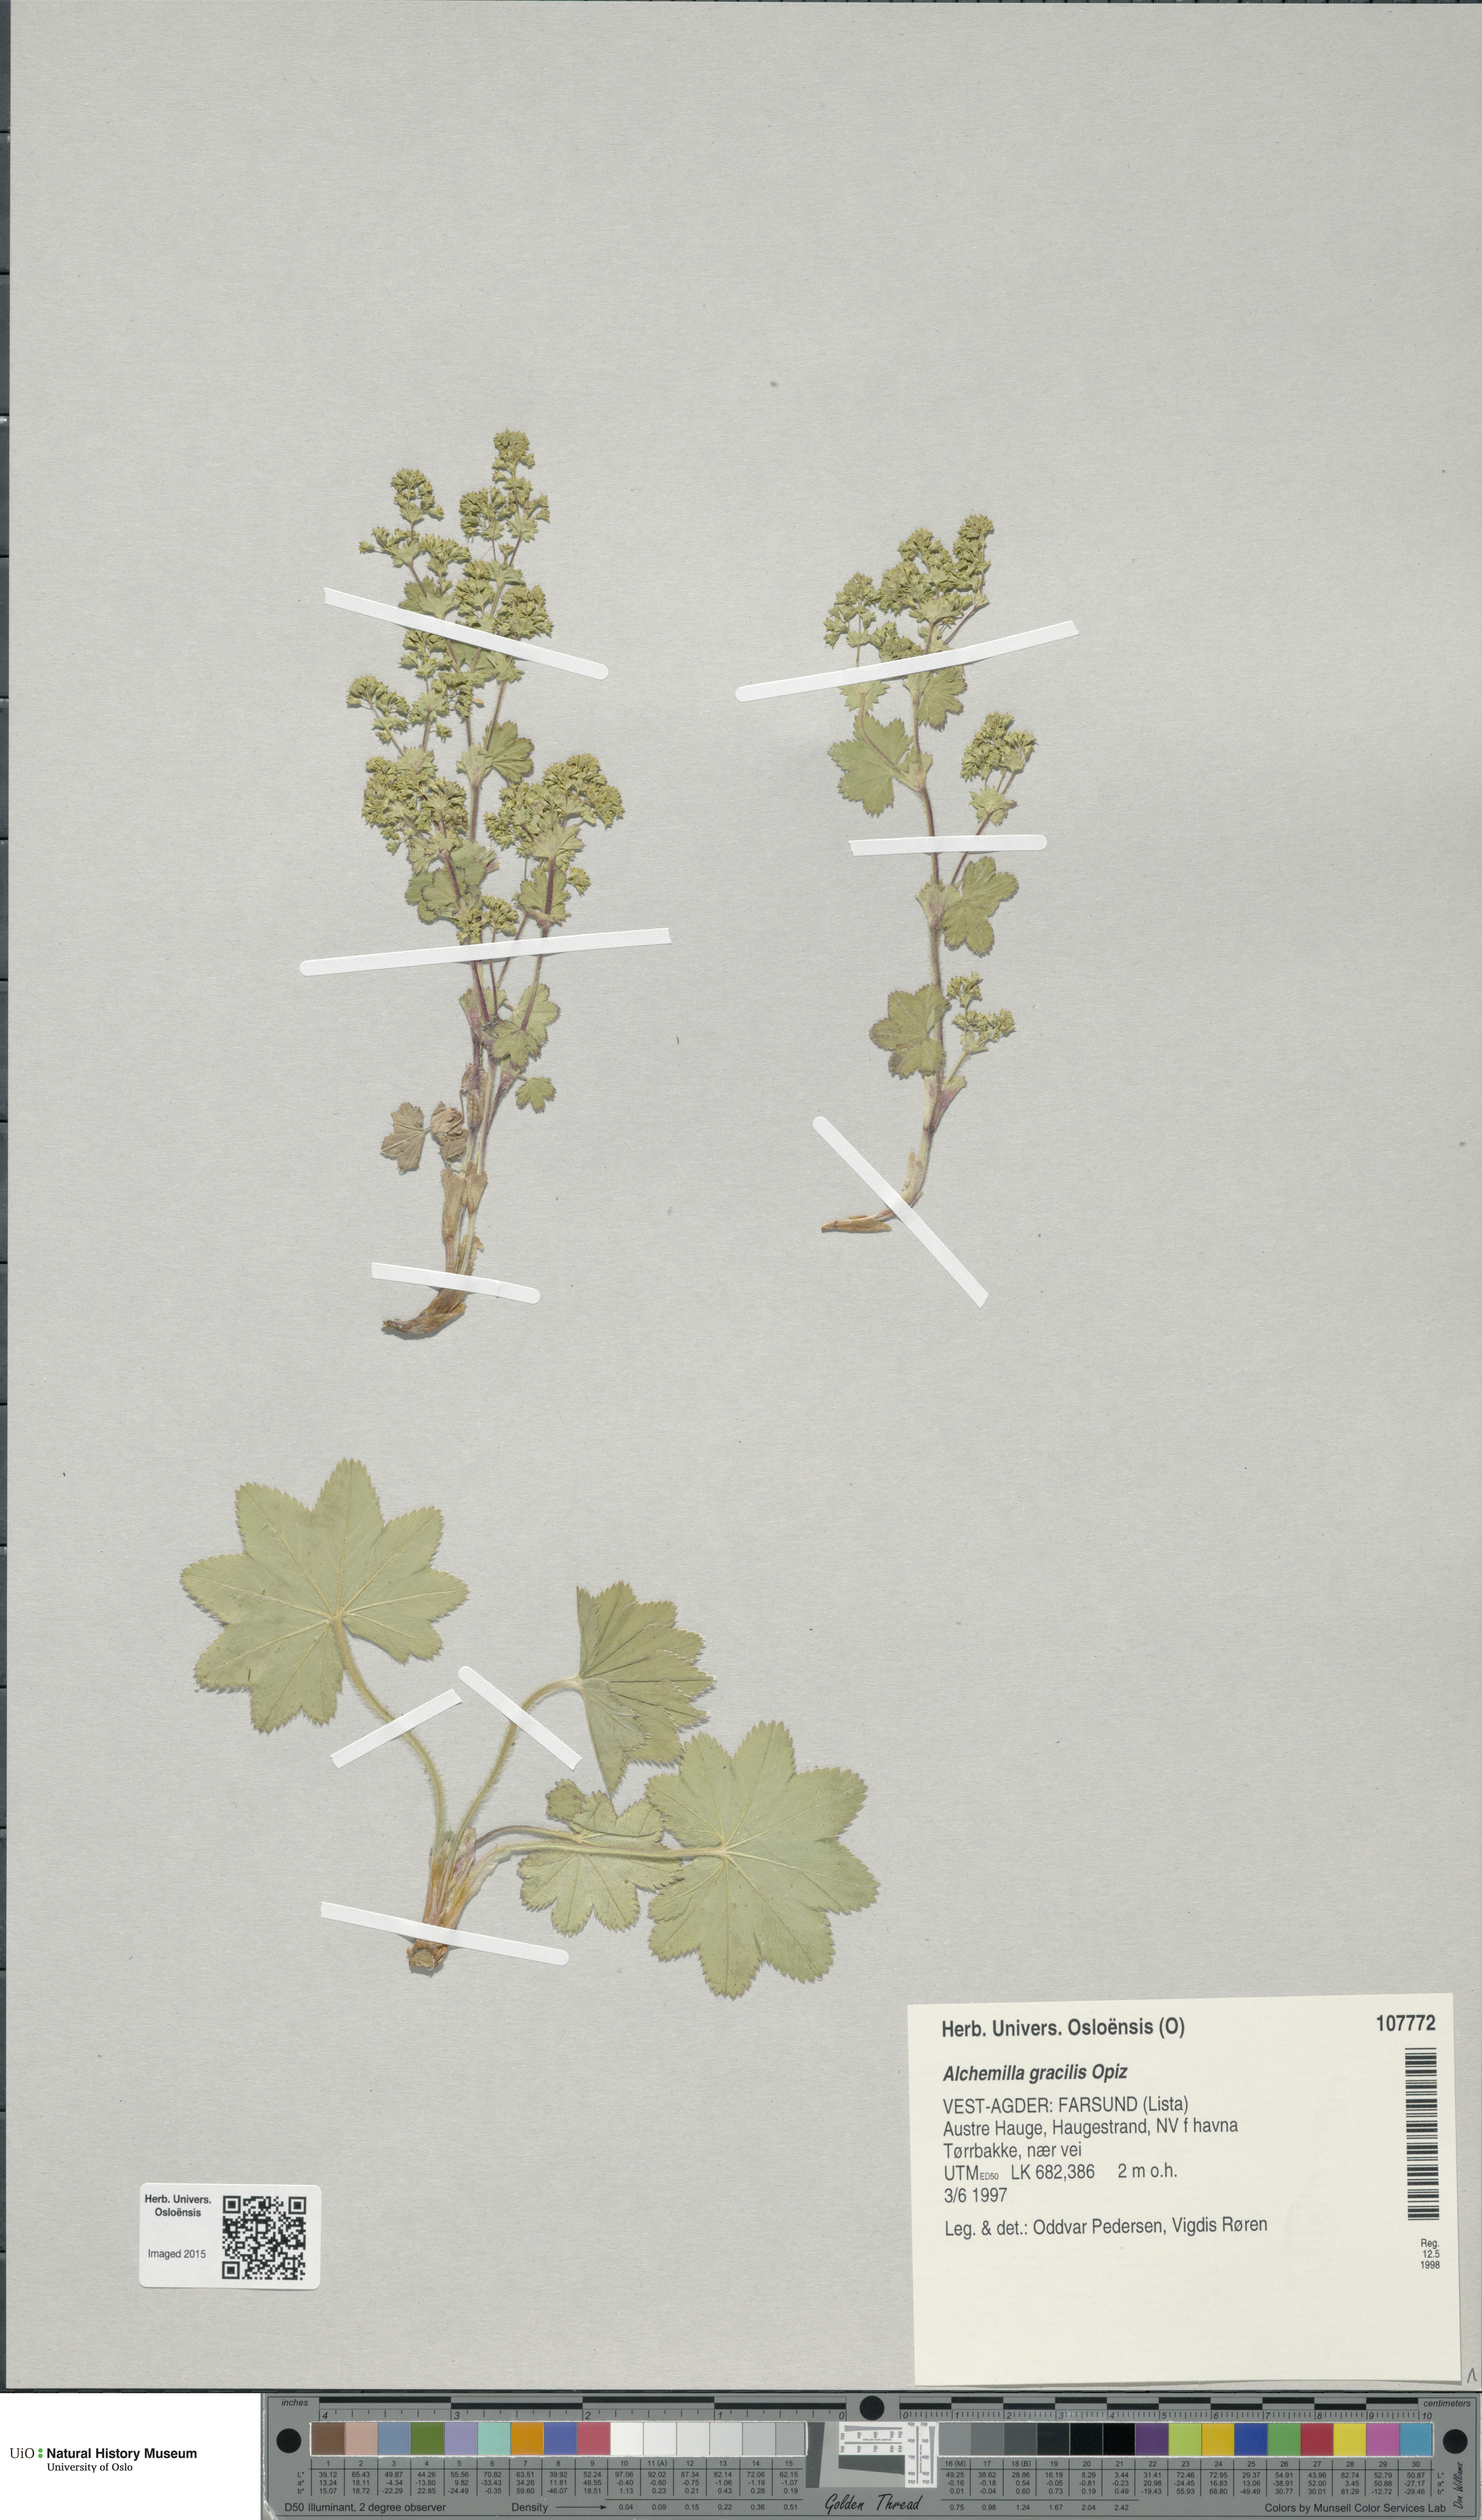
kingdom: Plantae
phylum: Tracheophyta
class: Magnoliopsida
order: Rosales
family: Rosaceae
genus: Alchemilla
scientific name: Alchemilla micans
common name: Gleaming lady's mantle
